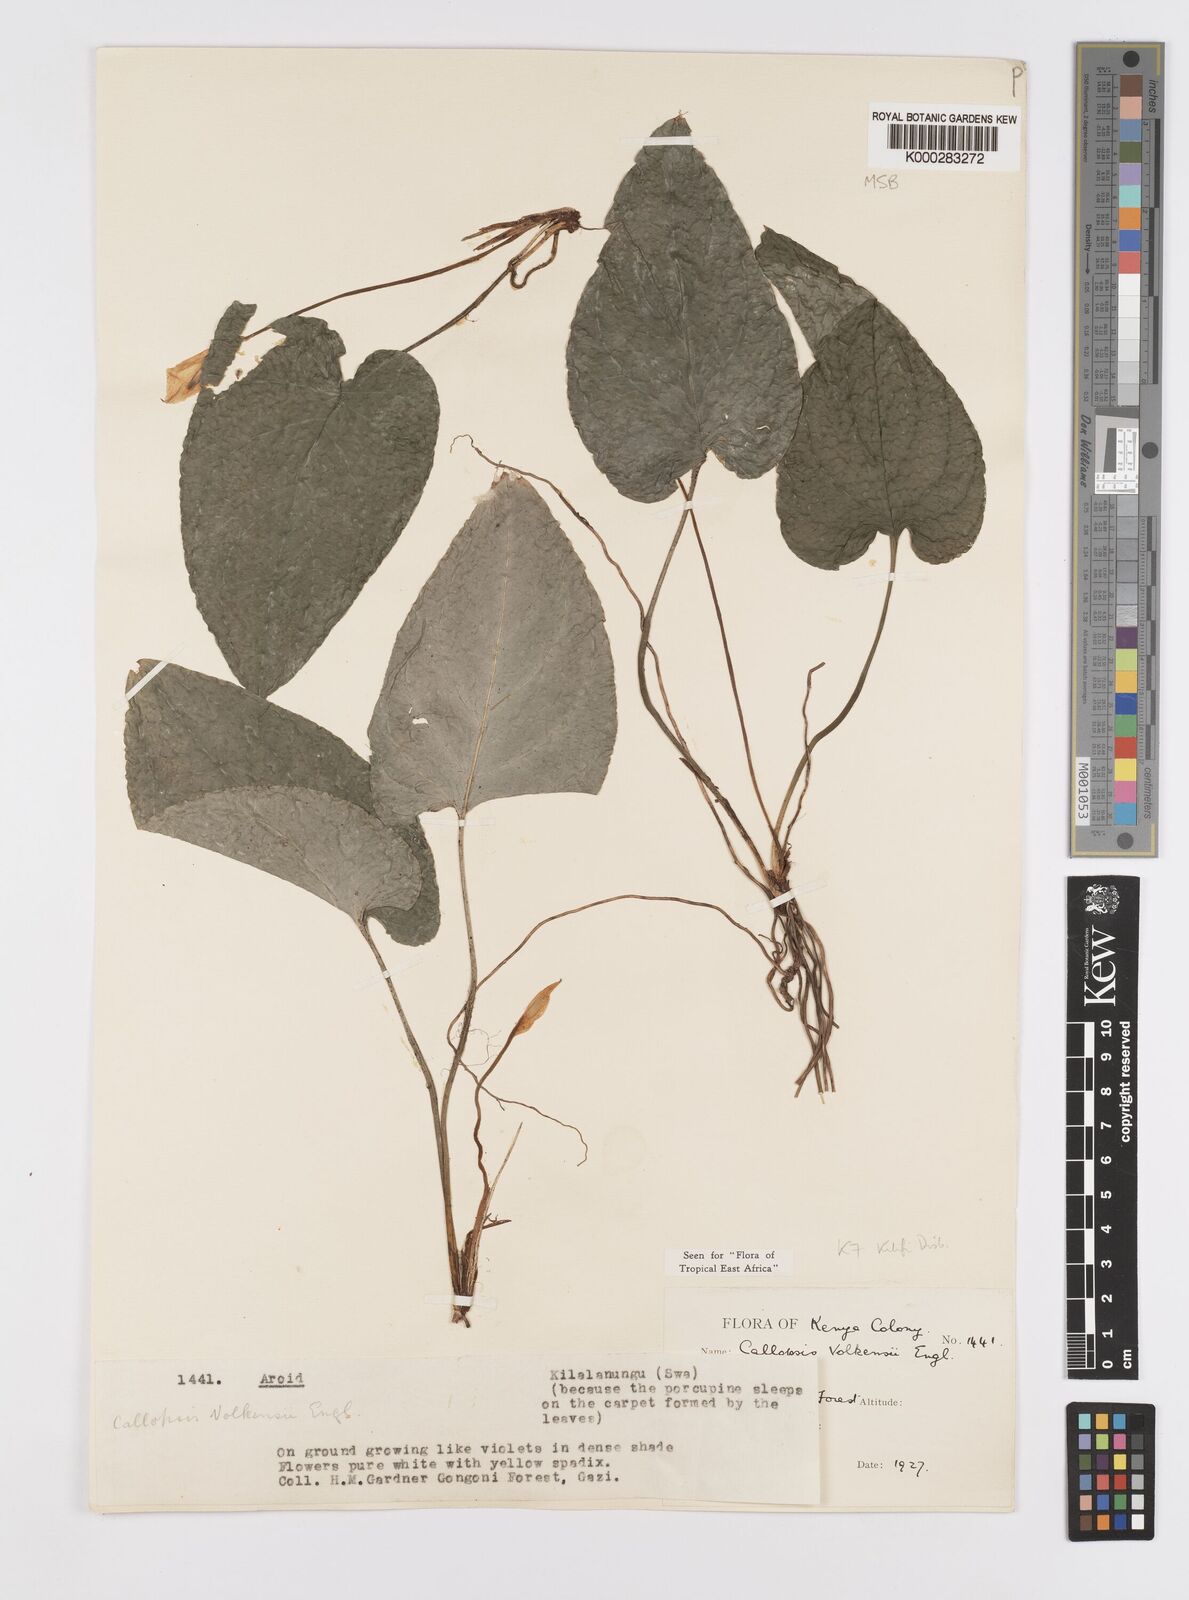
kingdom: Plantae
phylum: Tracheophyta
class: Liliopsida
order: Alismatales
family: Araceae
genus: Callopsis
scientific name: Callopsis volkensii
